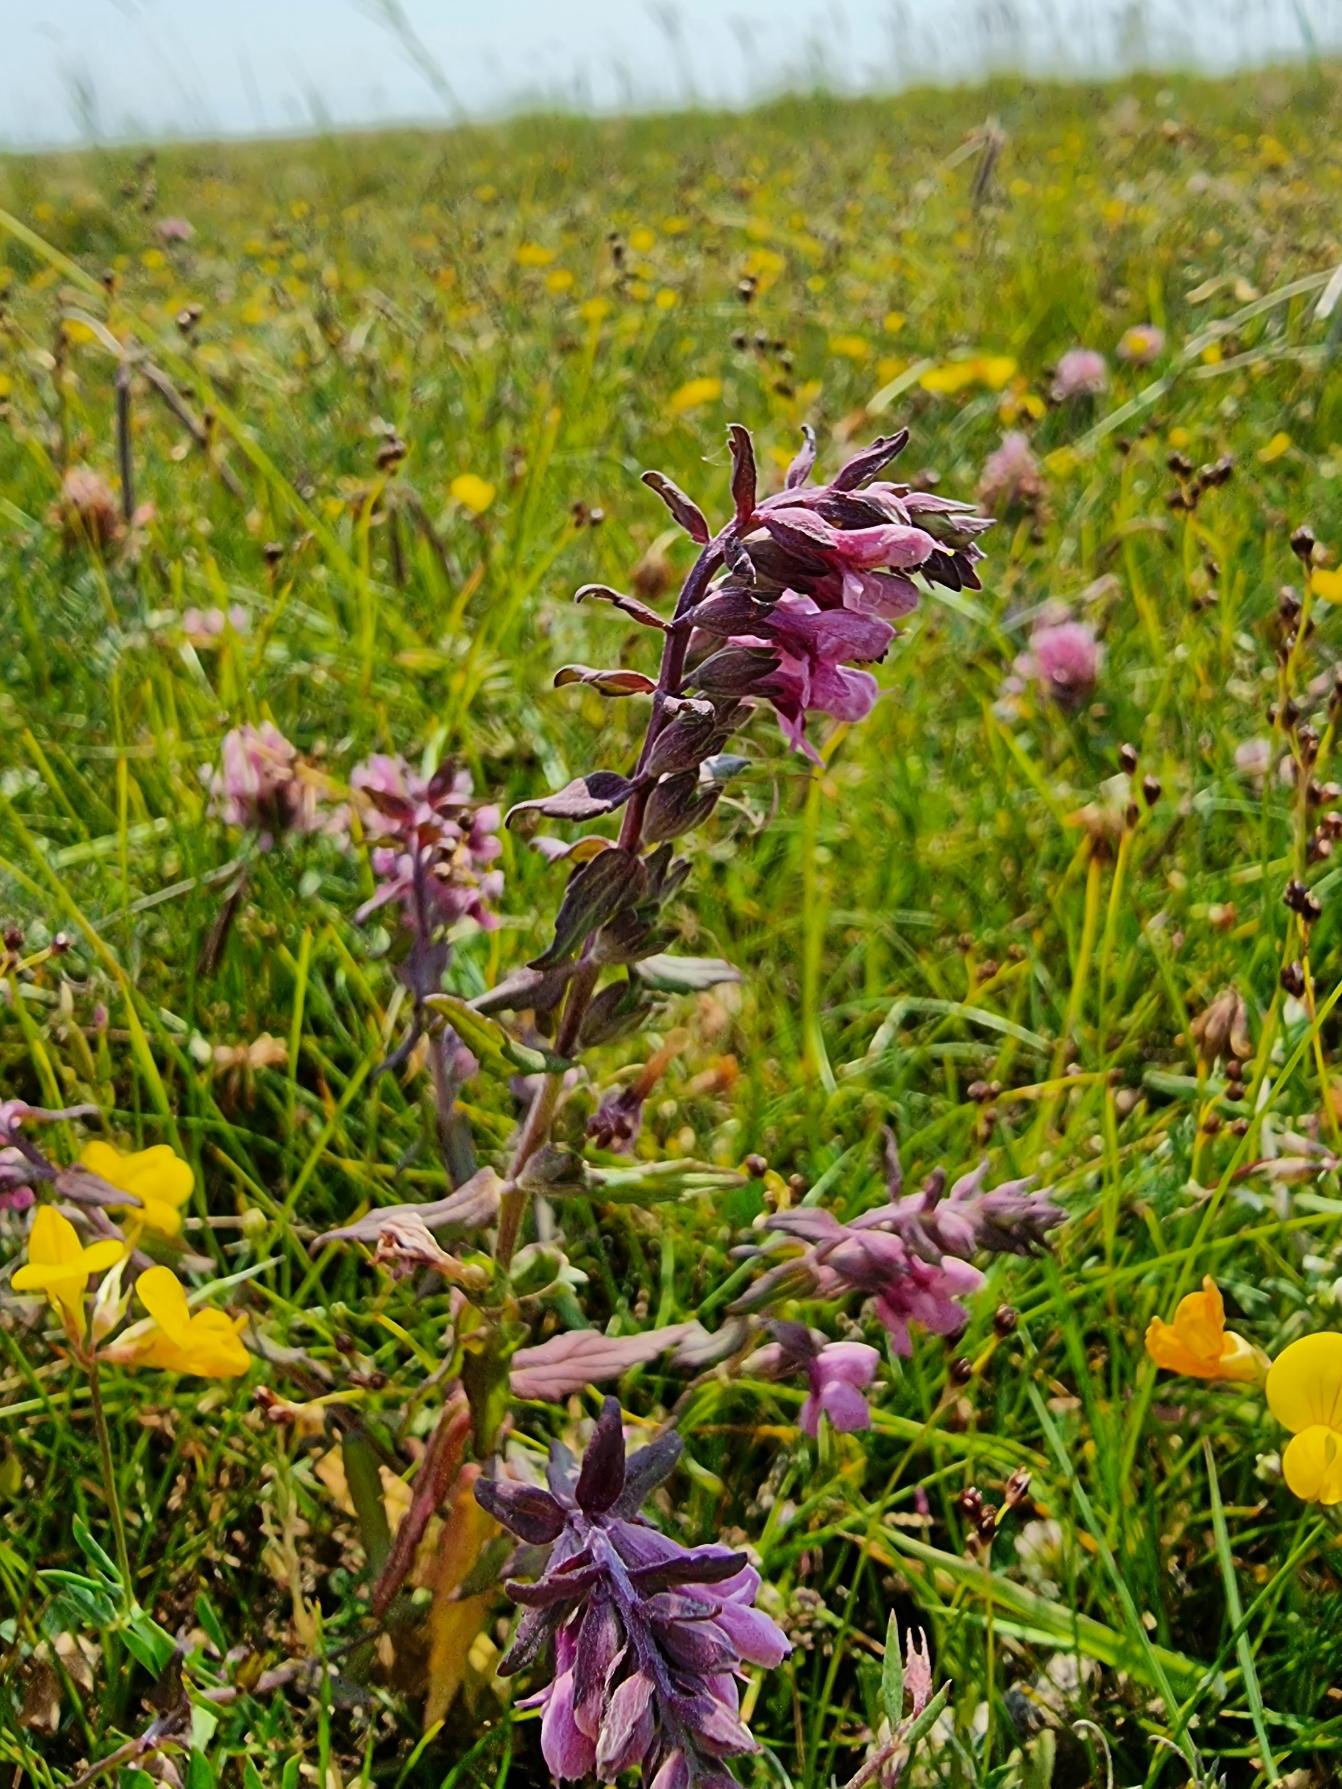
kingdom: Plantae
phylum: Tracheophyta
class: Magnoliopsida
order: Lamiales
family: Orobanchaceae
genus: Odontites
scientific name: Odontites litoralis
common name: Strand-rødtop
